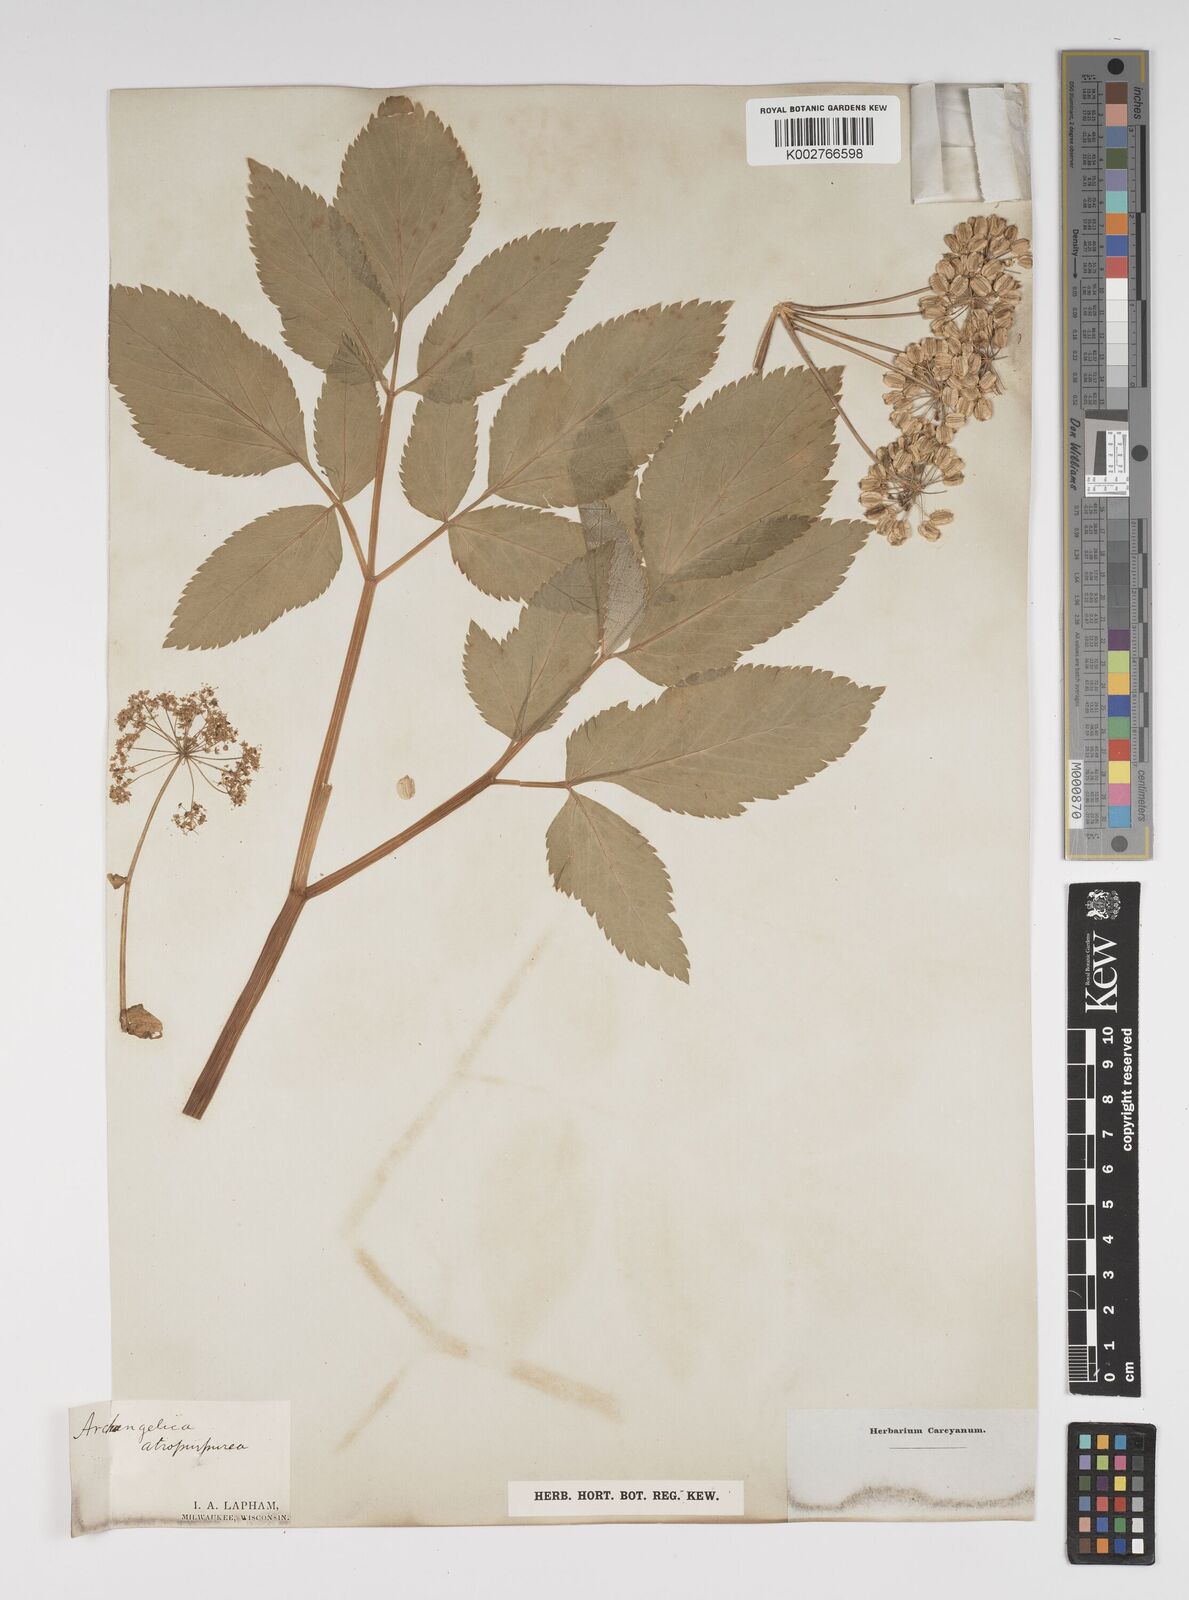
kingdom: Plantae
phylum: Tracheophyta
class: Magnoliopsida
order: Apiales
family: Apiaceae
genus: Angelica
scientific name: Angelica atropurpurea
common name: Great angelica
